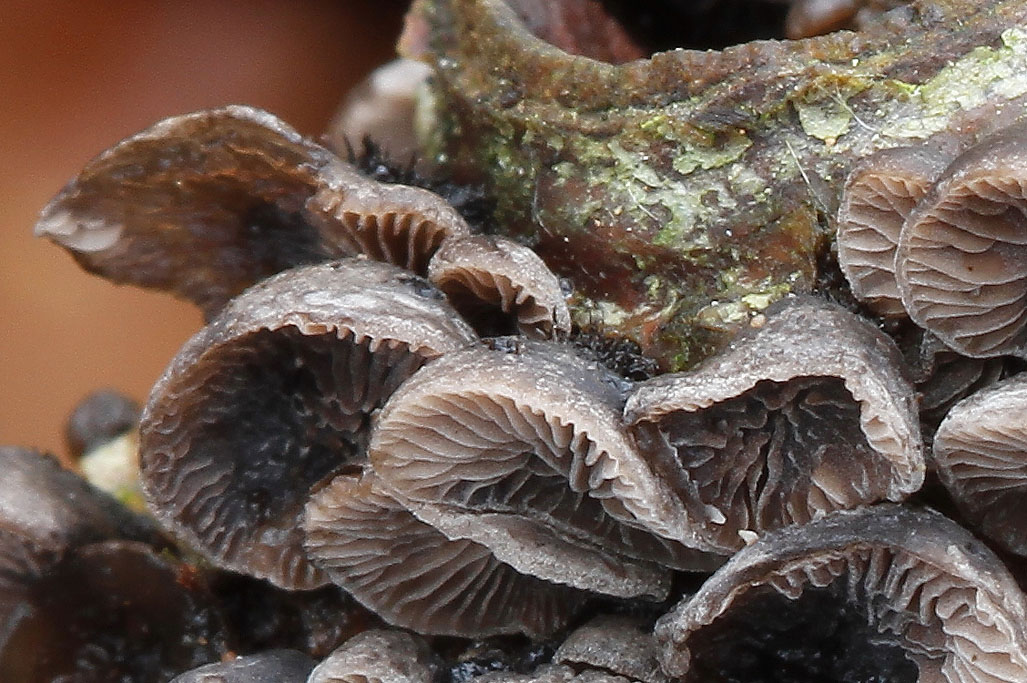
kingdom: Fungi
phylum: Basidiomycota
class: Agaricomycetes
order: Agaricales
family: Pleurotaceae
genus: Resupinatus
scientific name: Resupinatus trichotis
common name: mørkfiltet barkhat
